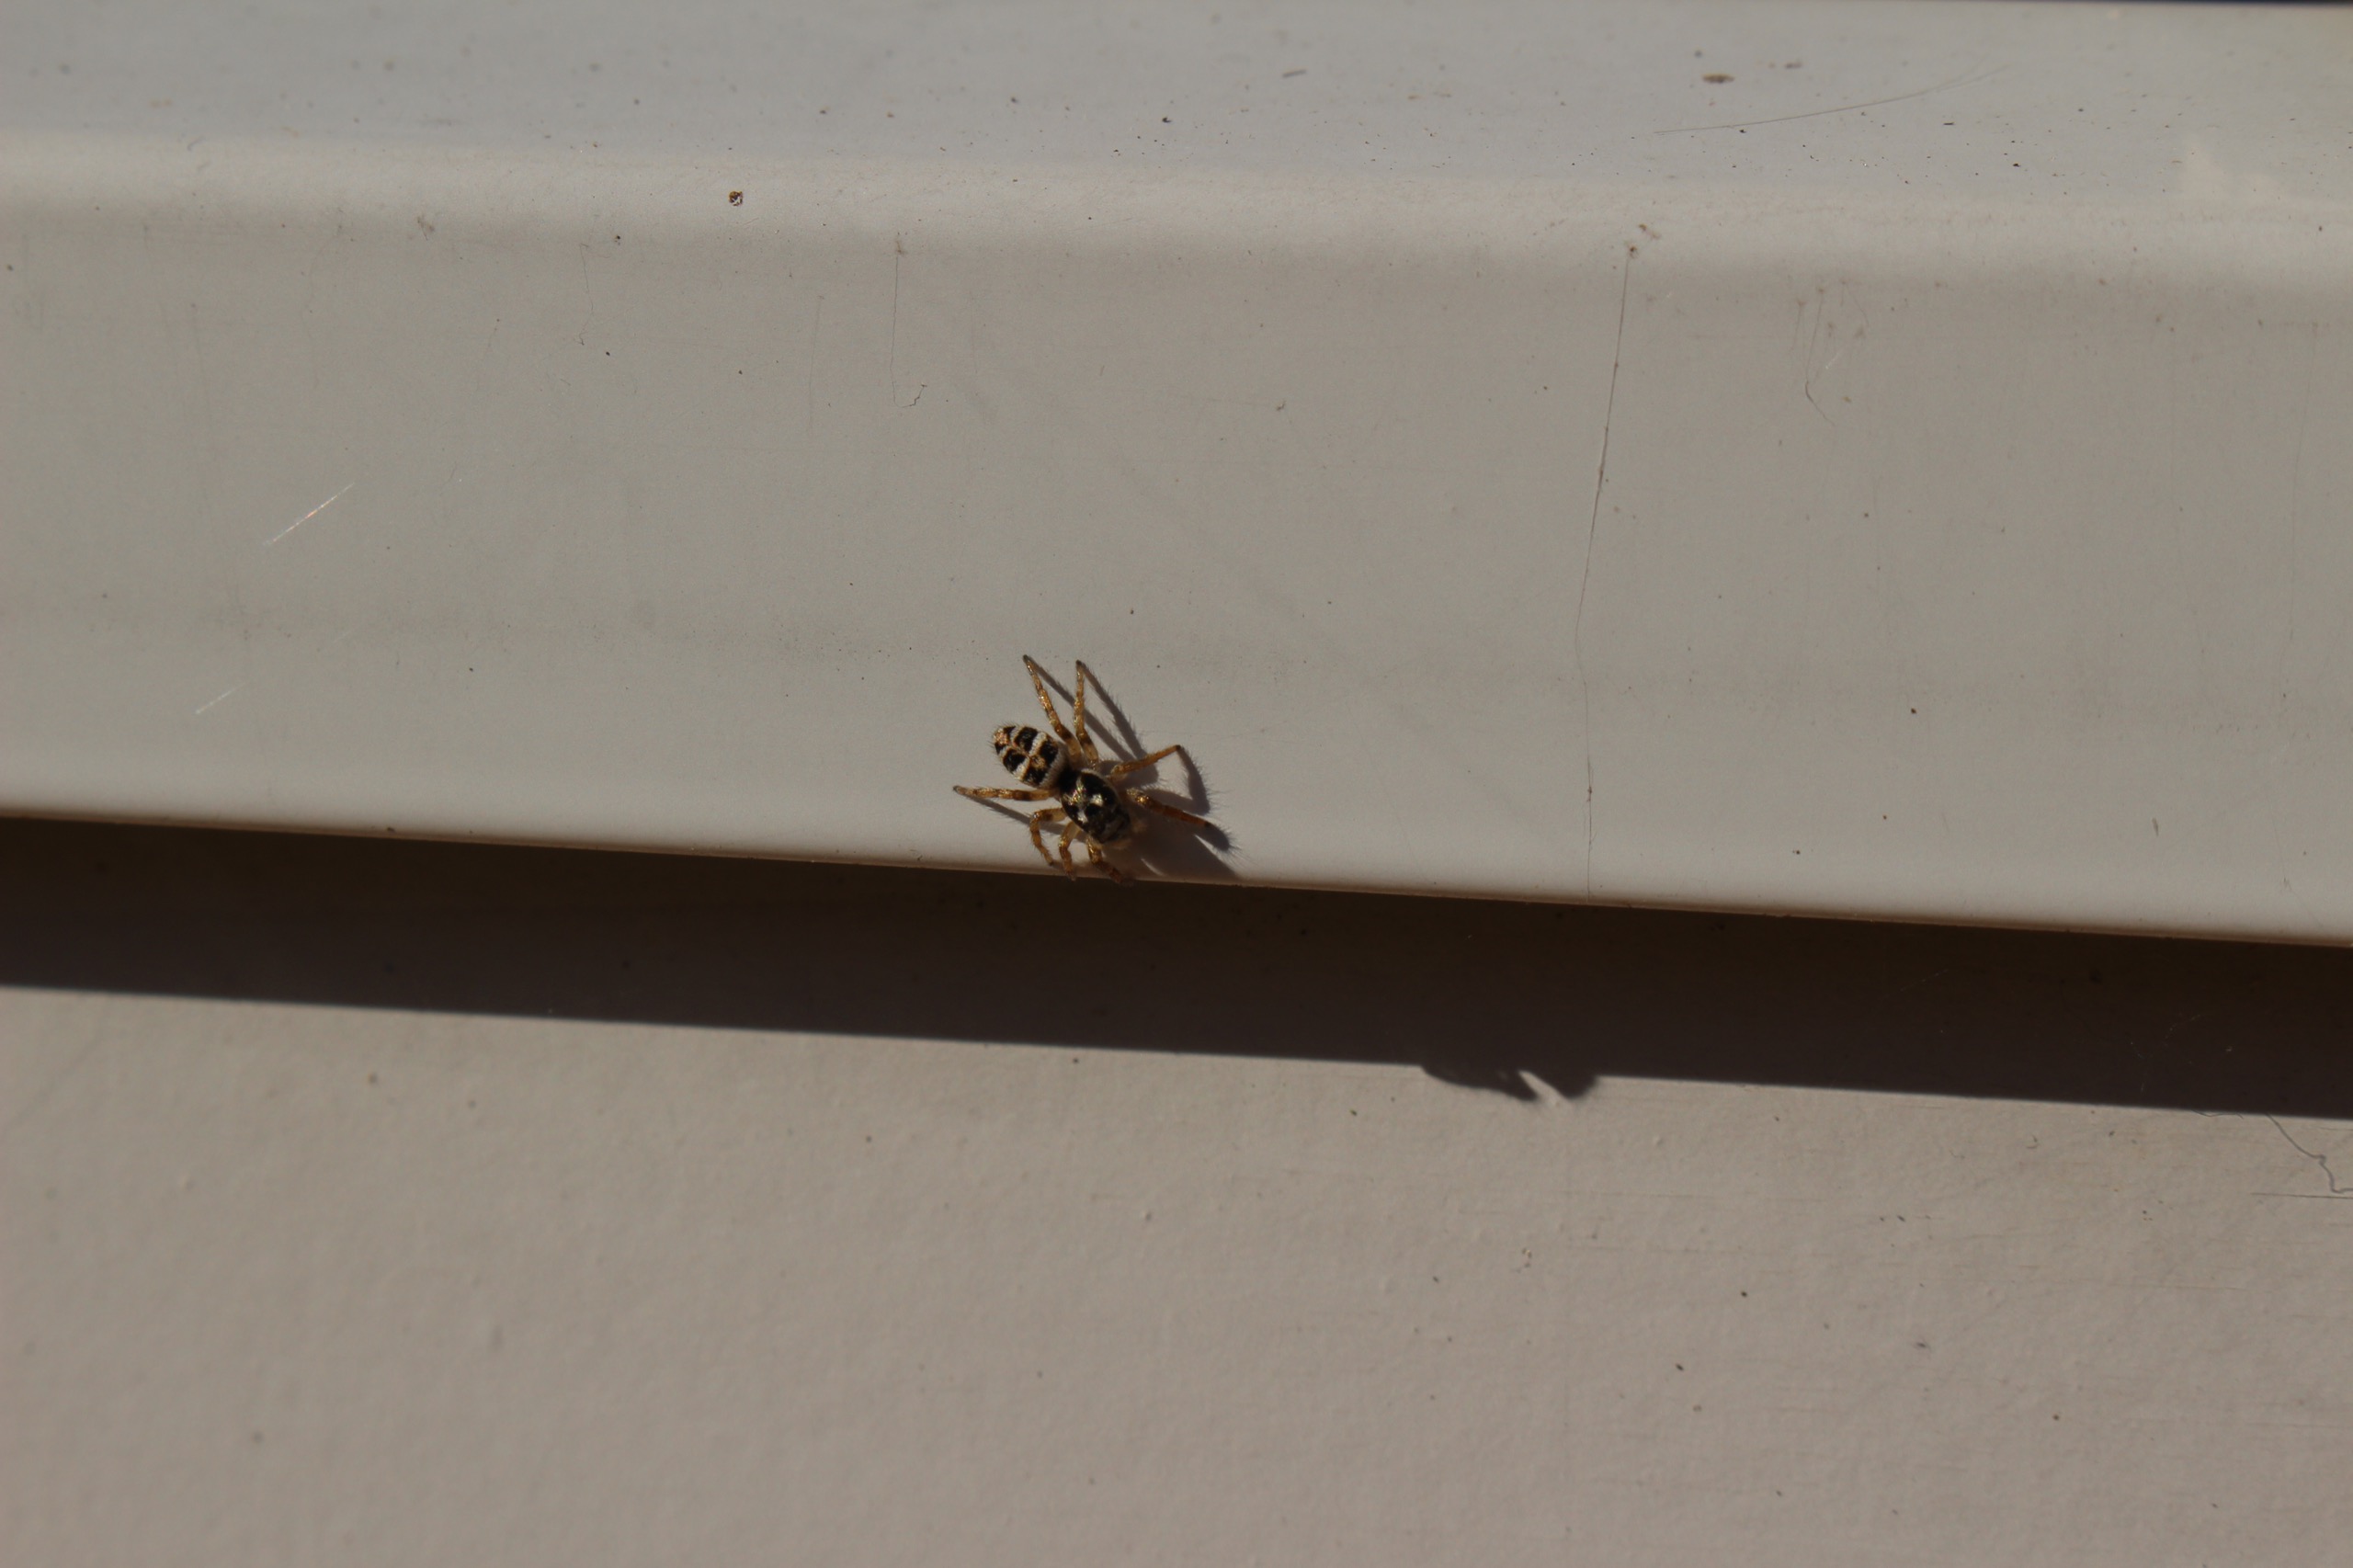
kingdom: Animalia
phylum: Arthropoda
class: Arachnida
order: Araneae
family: Salticidae
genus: Salticus
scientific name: Salticus scenicus
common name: Almindelig zebraedderkop
